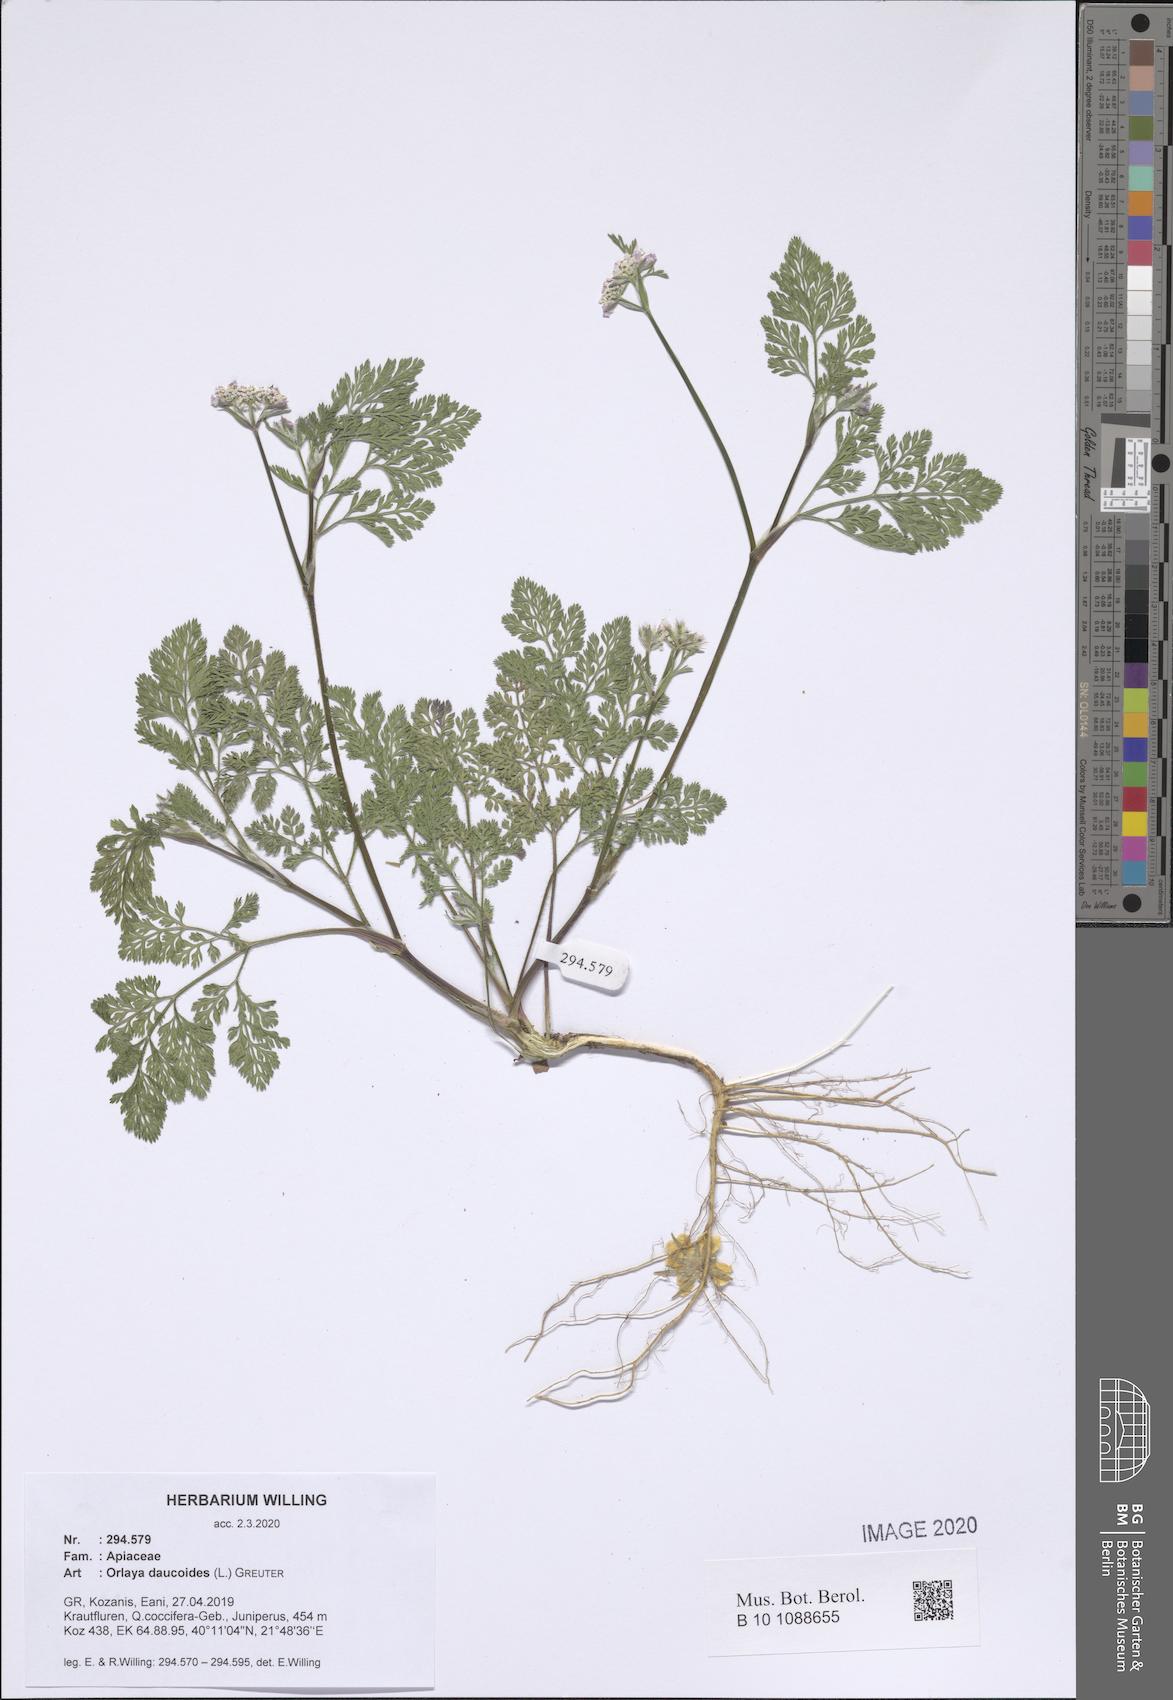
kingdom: Plantae
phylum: Tracheophyta
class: Magnoliopsida
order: Apiales
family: Apiaceae
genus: Orlaya
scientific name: Orlaya daucoides
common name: Flat-fruit orlaya
